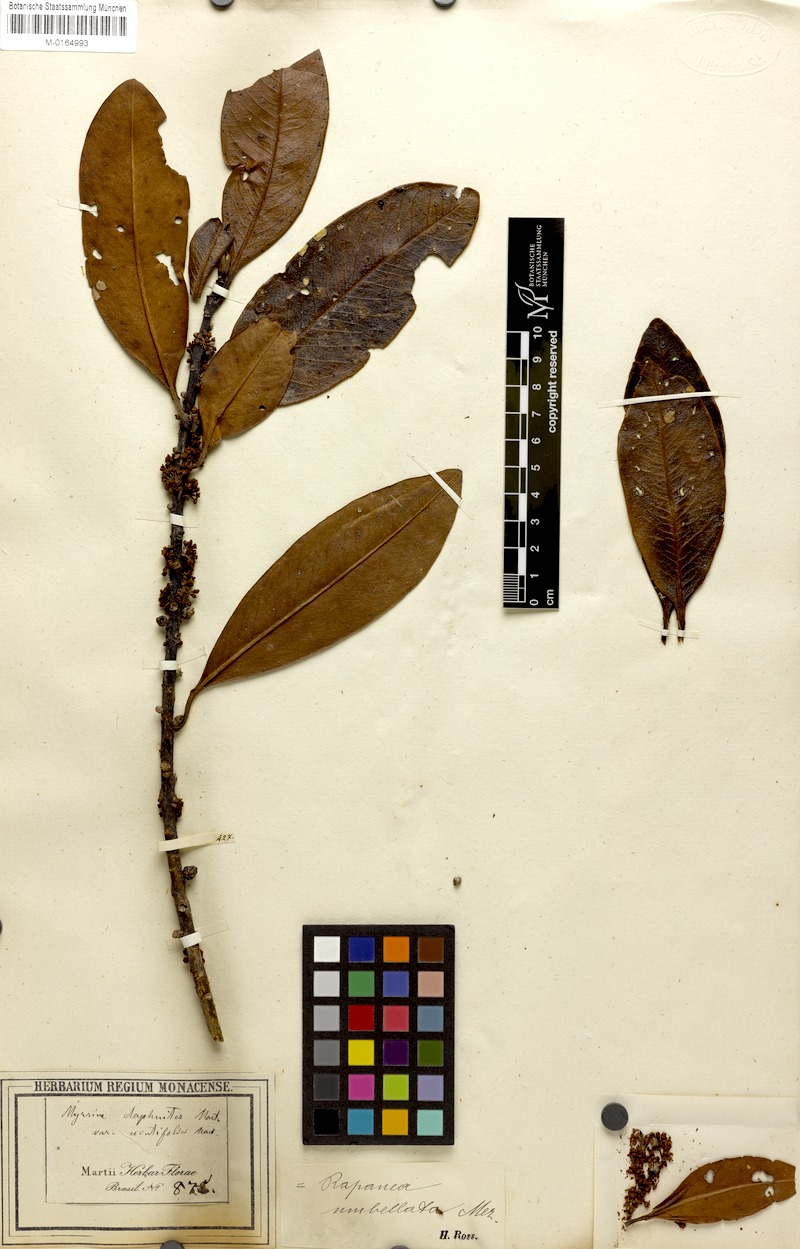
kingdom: Plantae
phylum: Tracheophyta
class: Magnoliopsida
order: Ericales
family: Primulaceae
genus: Myrsine
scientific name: Myrsine umbellata
